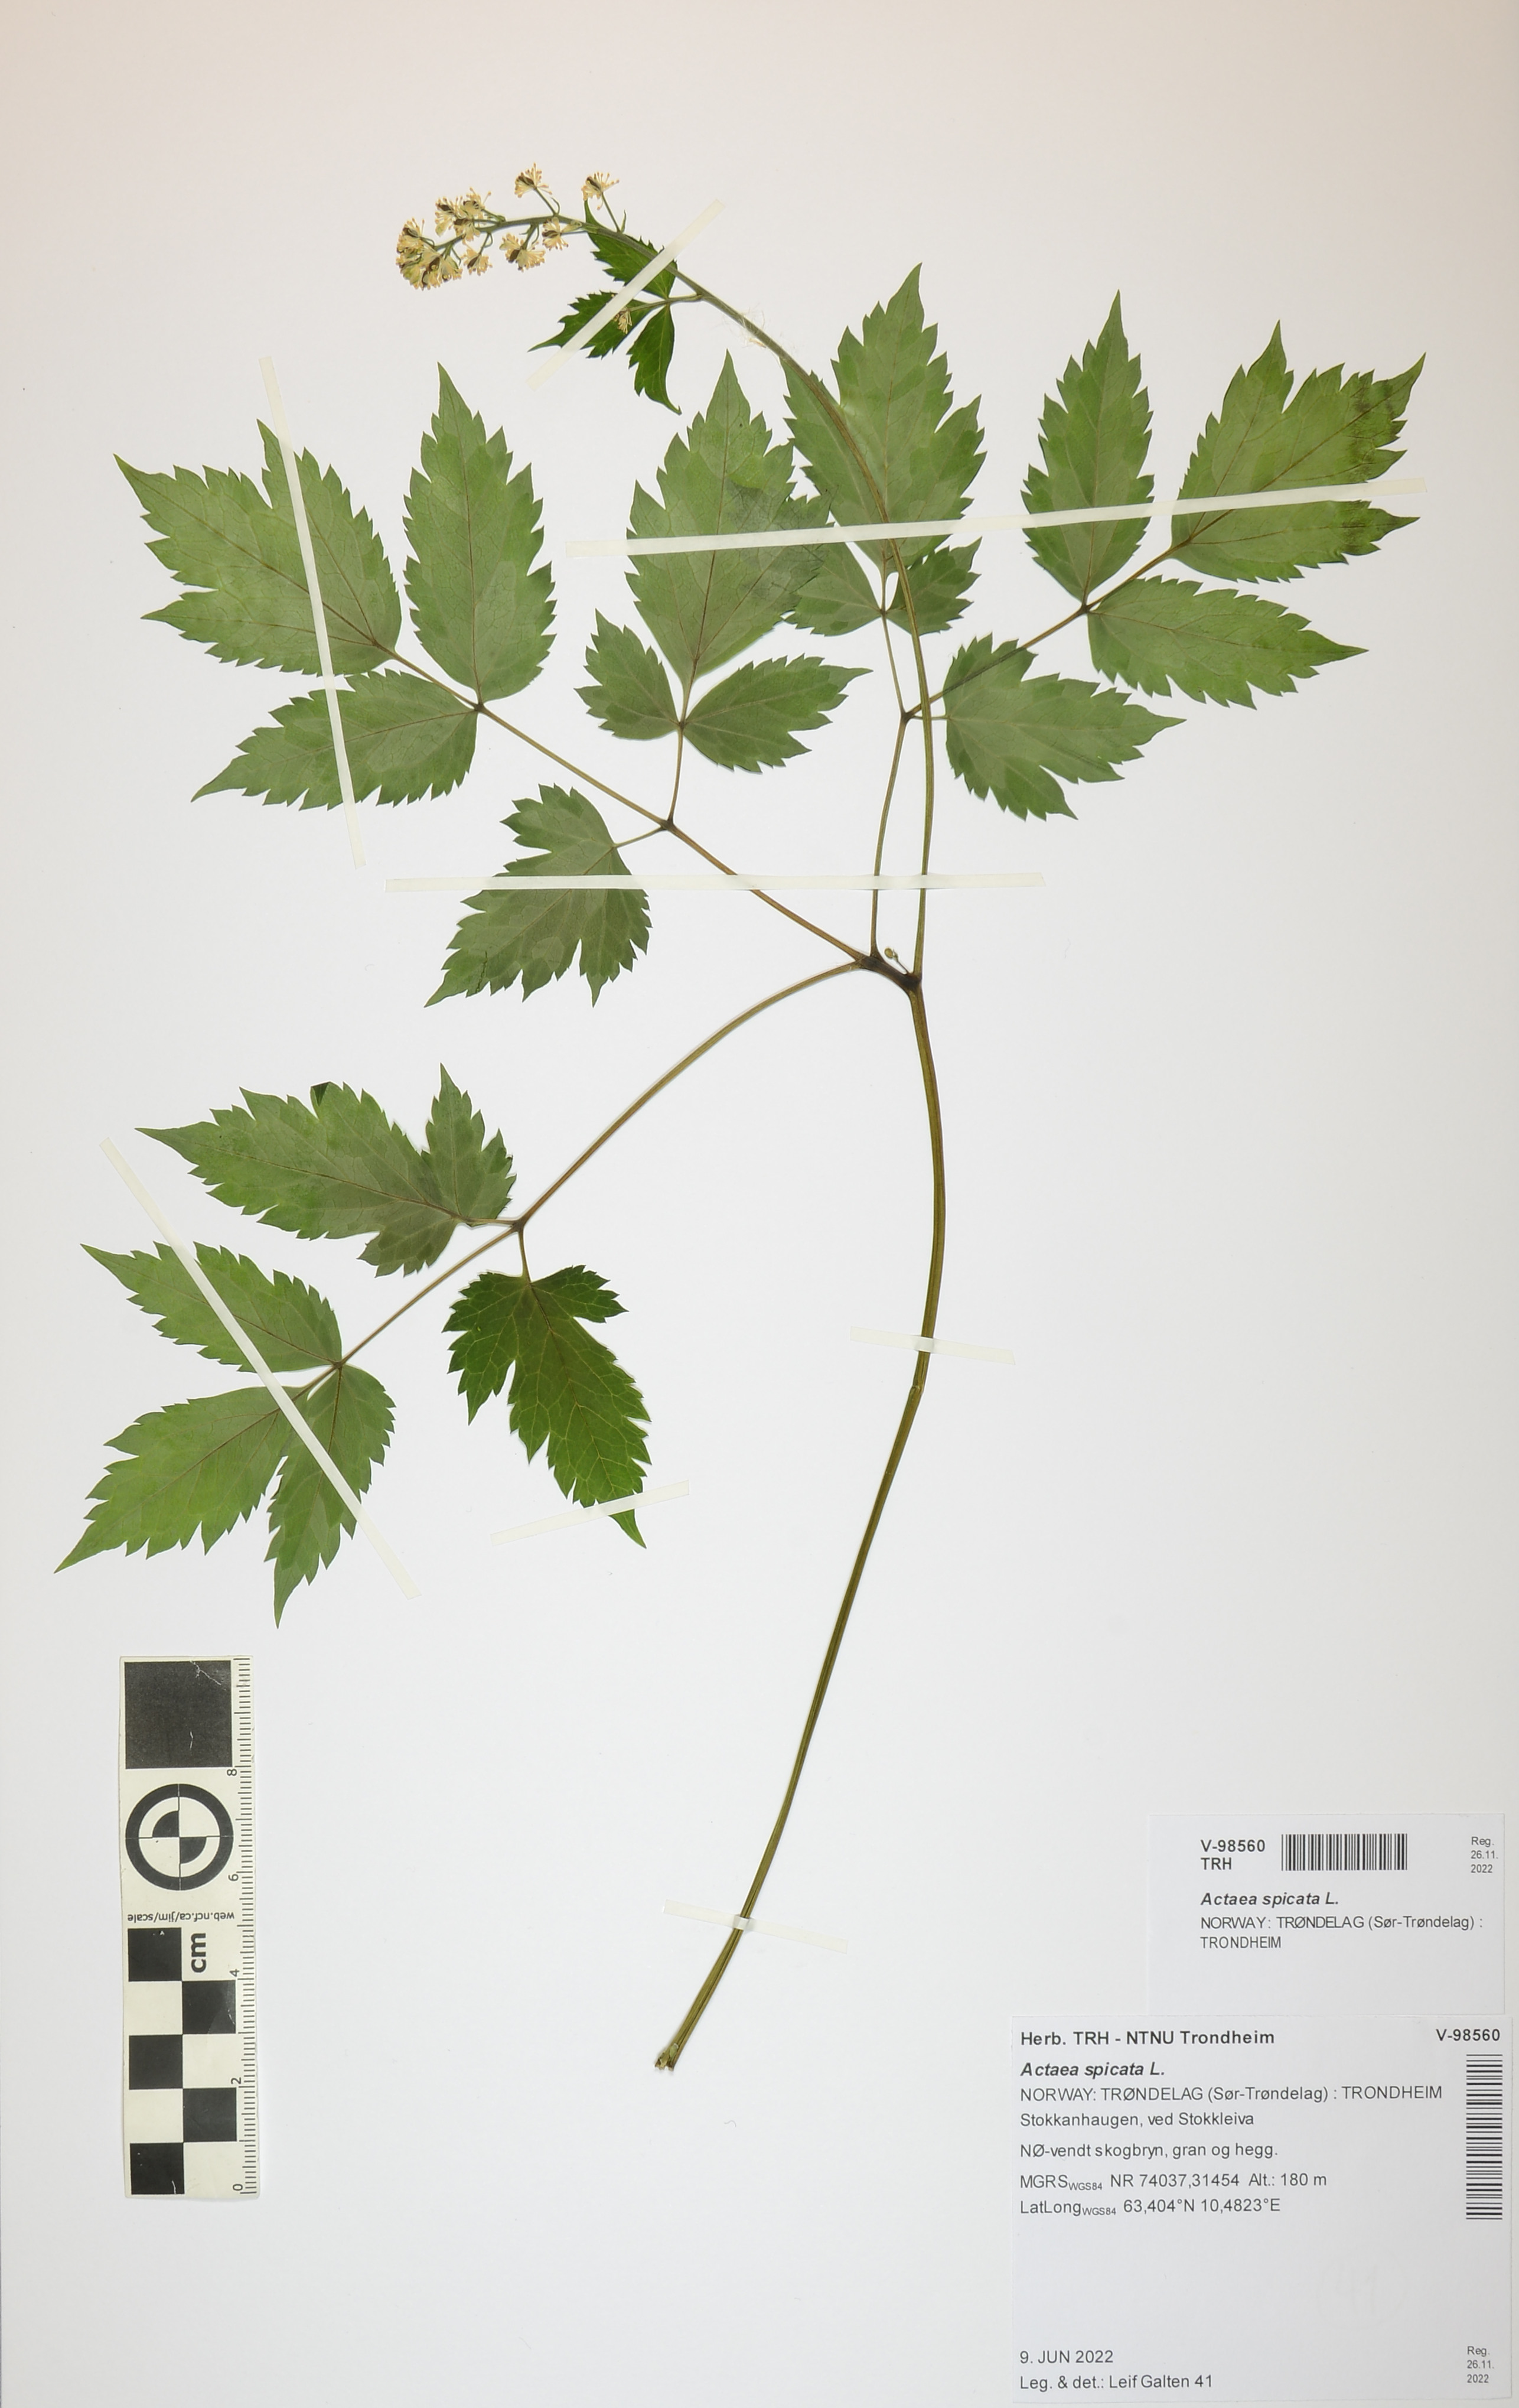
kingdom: Plantae
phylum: Tracheophyta
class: Magnoliopsida
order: Ranunculales
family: Ranunculaceae
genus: Actaea
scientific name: Actaea spicata
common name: Baneberry
